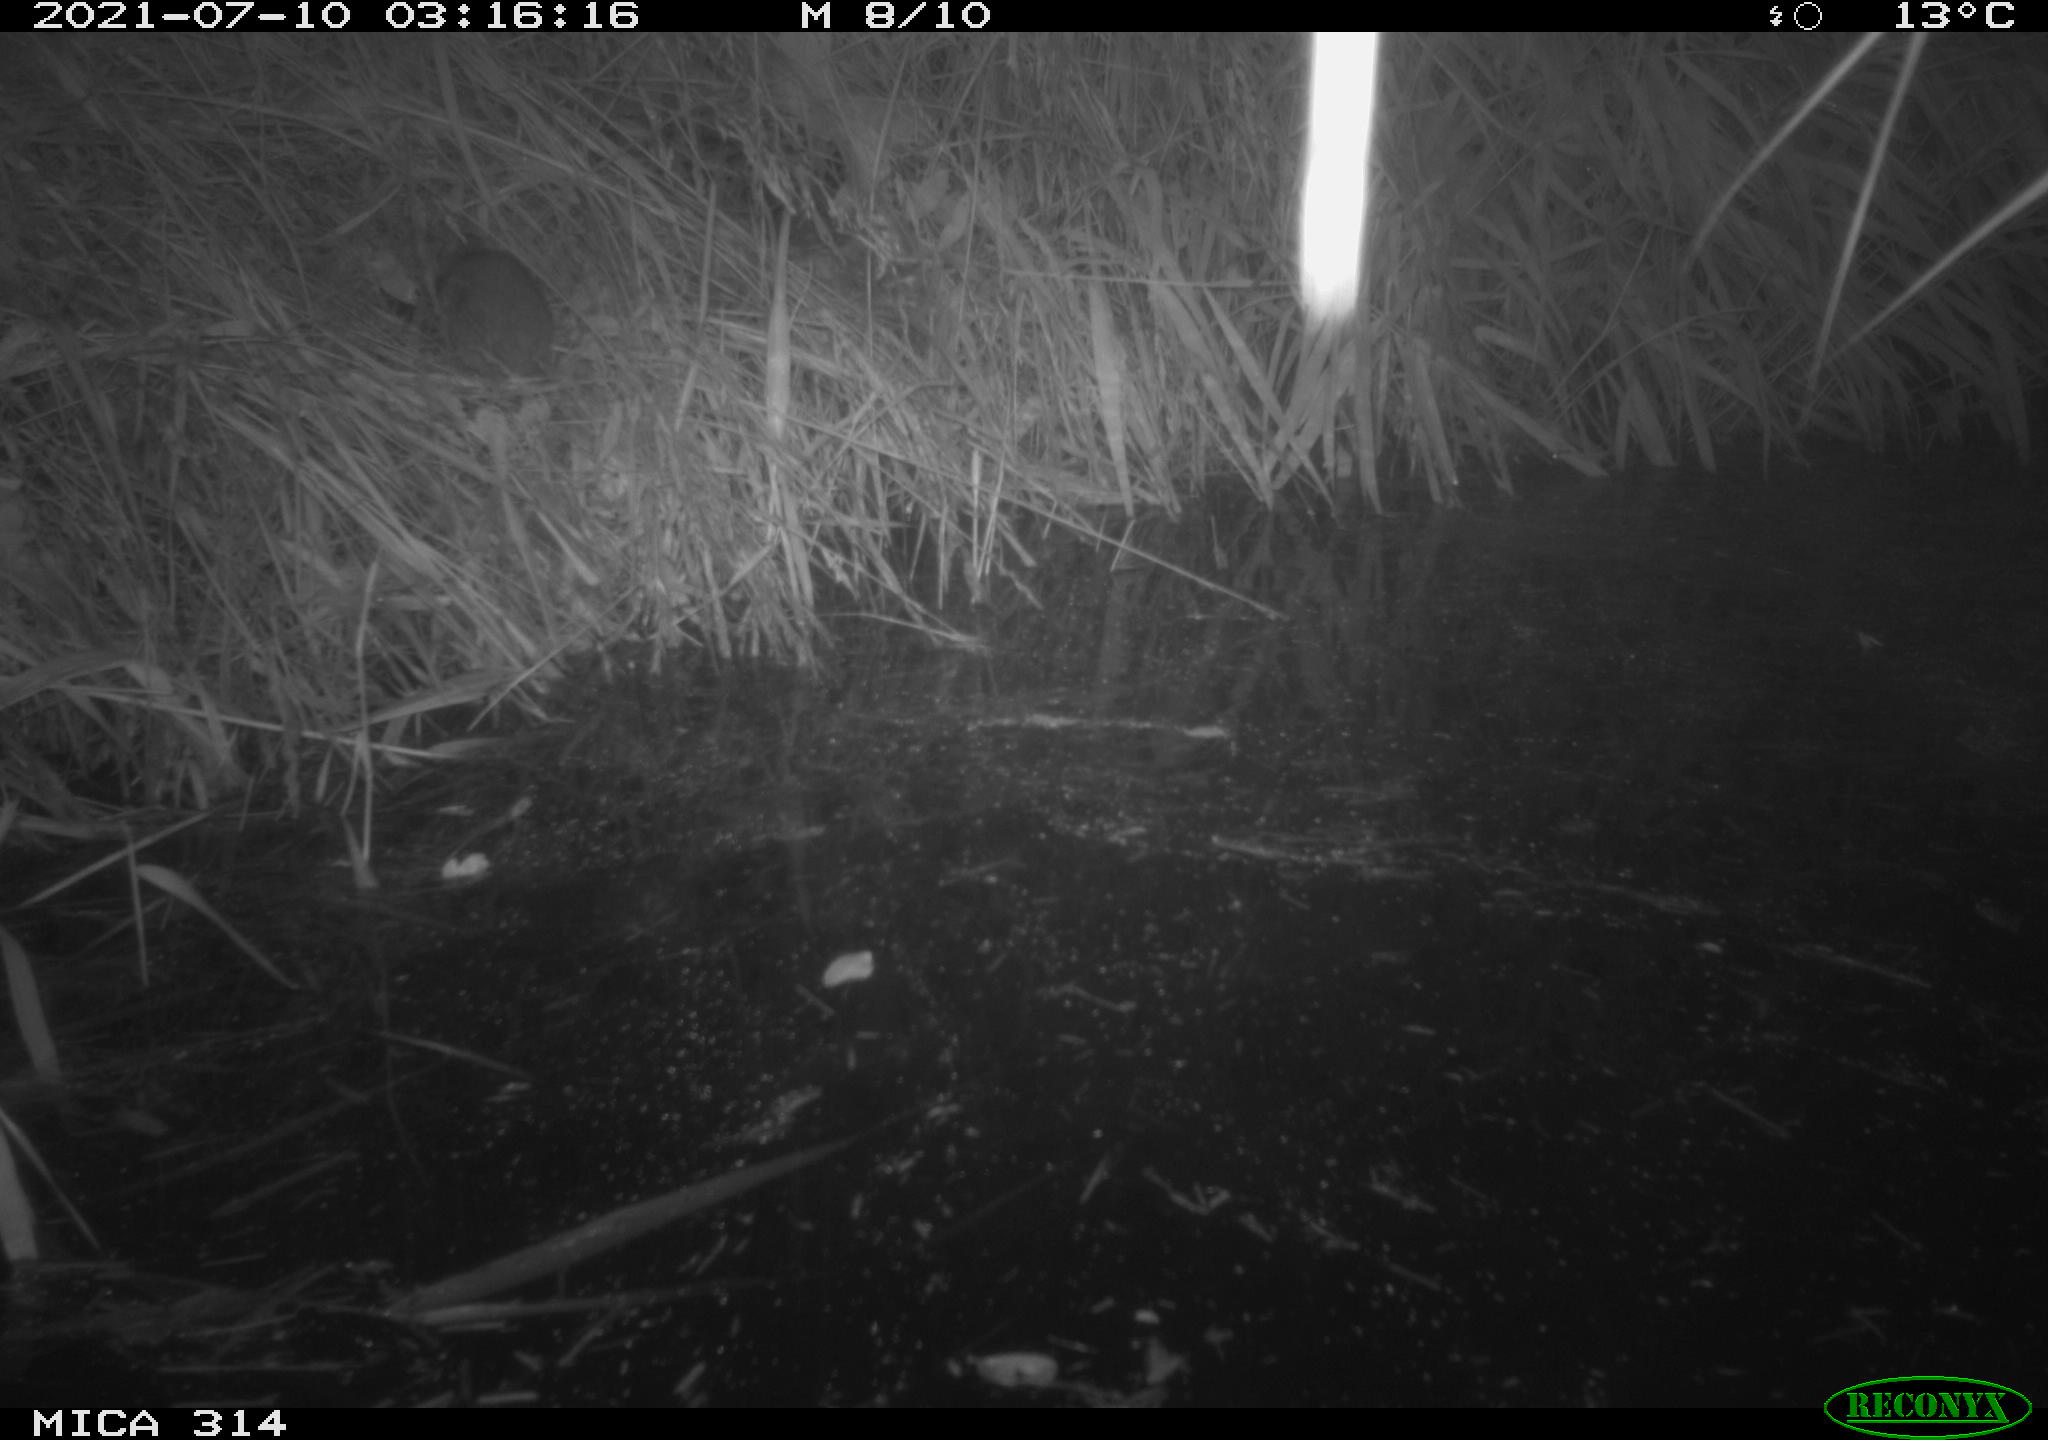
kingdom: Animalia
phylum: Chordata
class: Mammalia
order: Rodentia
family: Muridae
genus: Rattus
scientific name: Rattus norvegicus
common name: Brown rat
